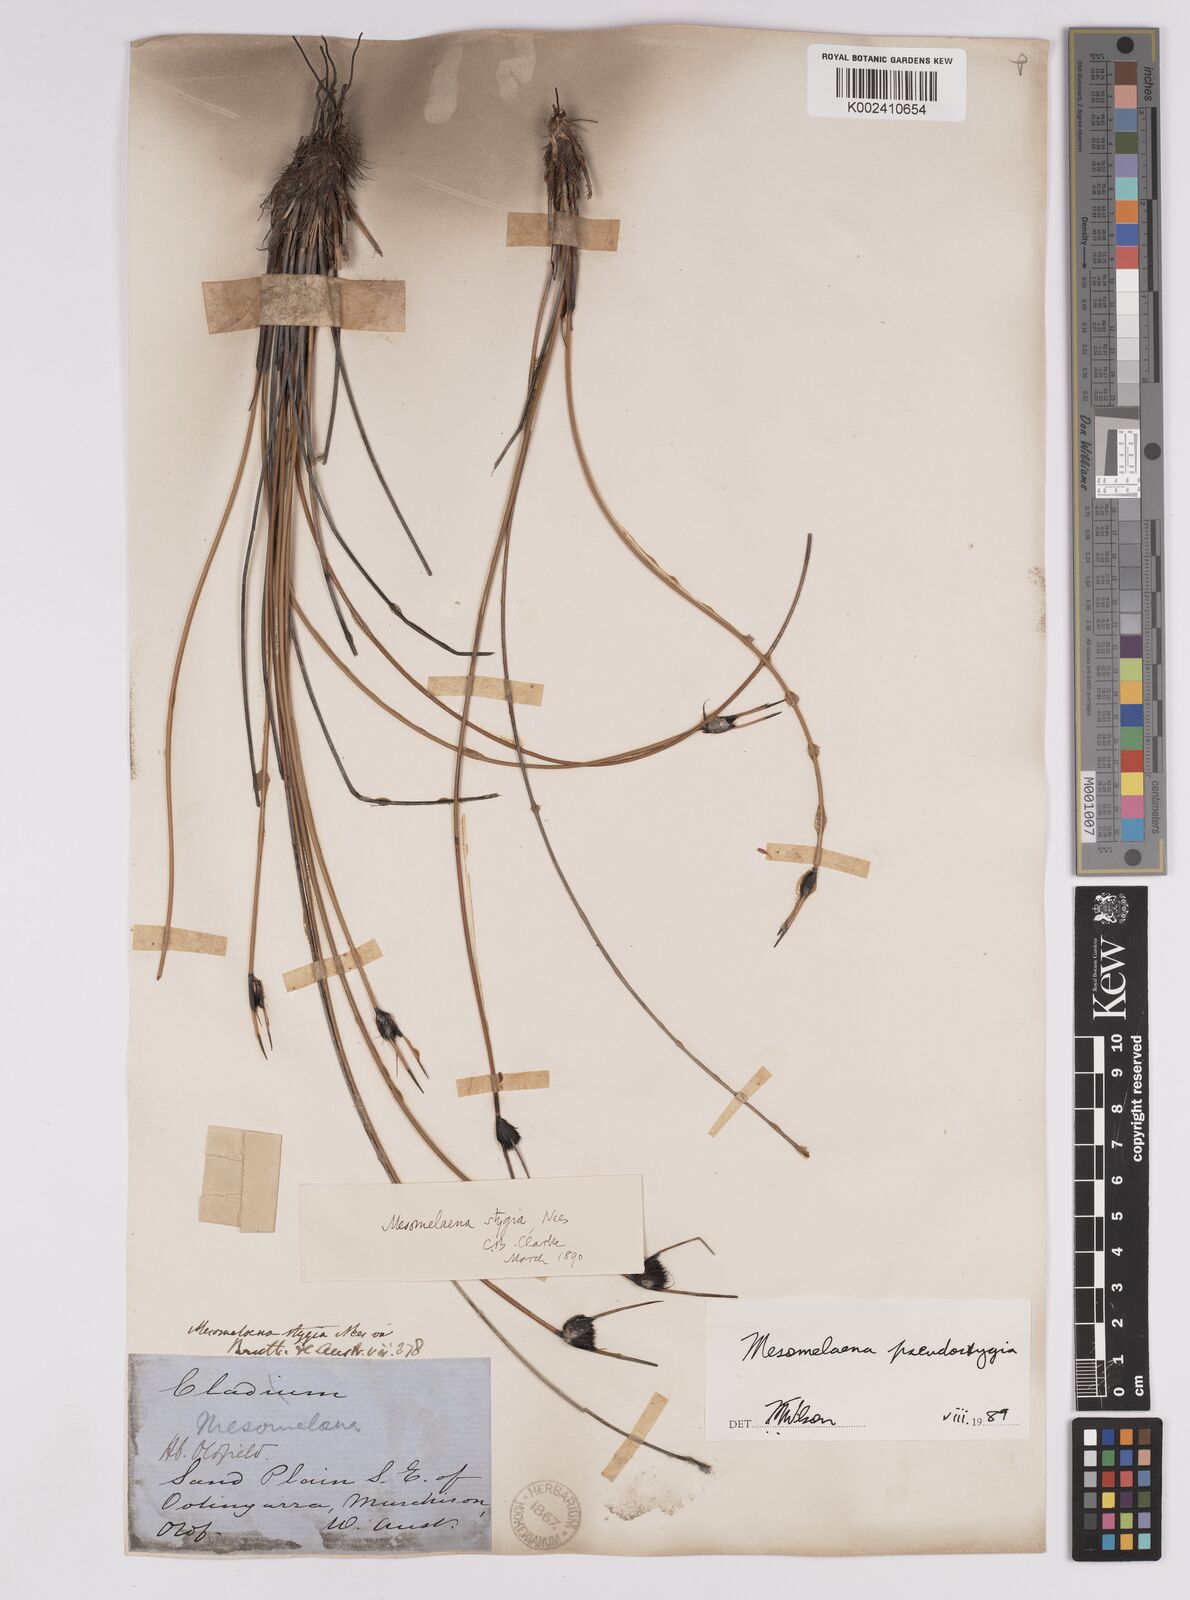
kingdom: Plantae
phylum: Tracheophyta
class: Liliopsida
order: Poales
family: Cyperaceae
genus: Mesomelaena
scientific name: Mesomelaena pseudostygia
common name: Semaphore sedge
